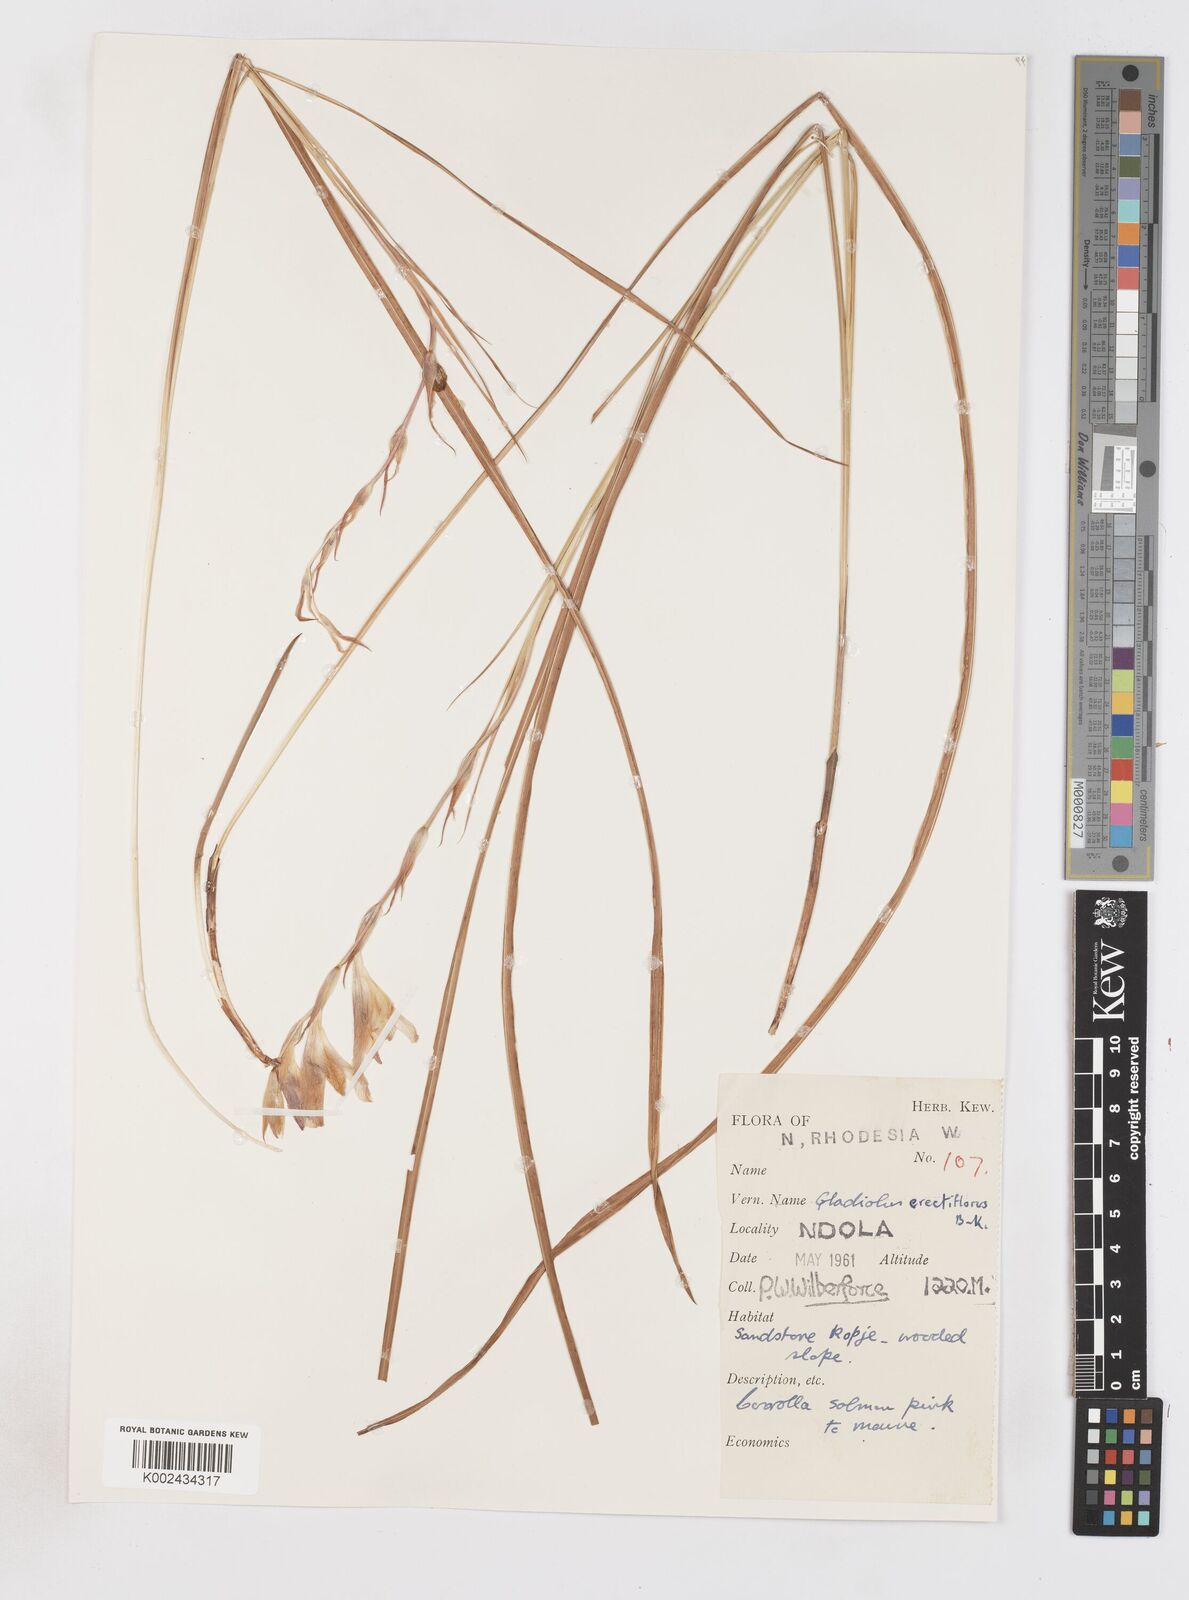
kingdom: Plantae
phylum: Tracheophyta
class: Liliopsida
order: Asparagales
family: Iridaceae
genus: Gladiolus
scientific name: Gladiolus erectiflorus
